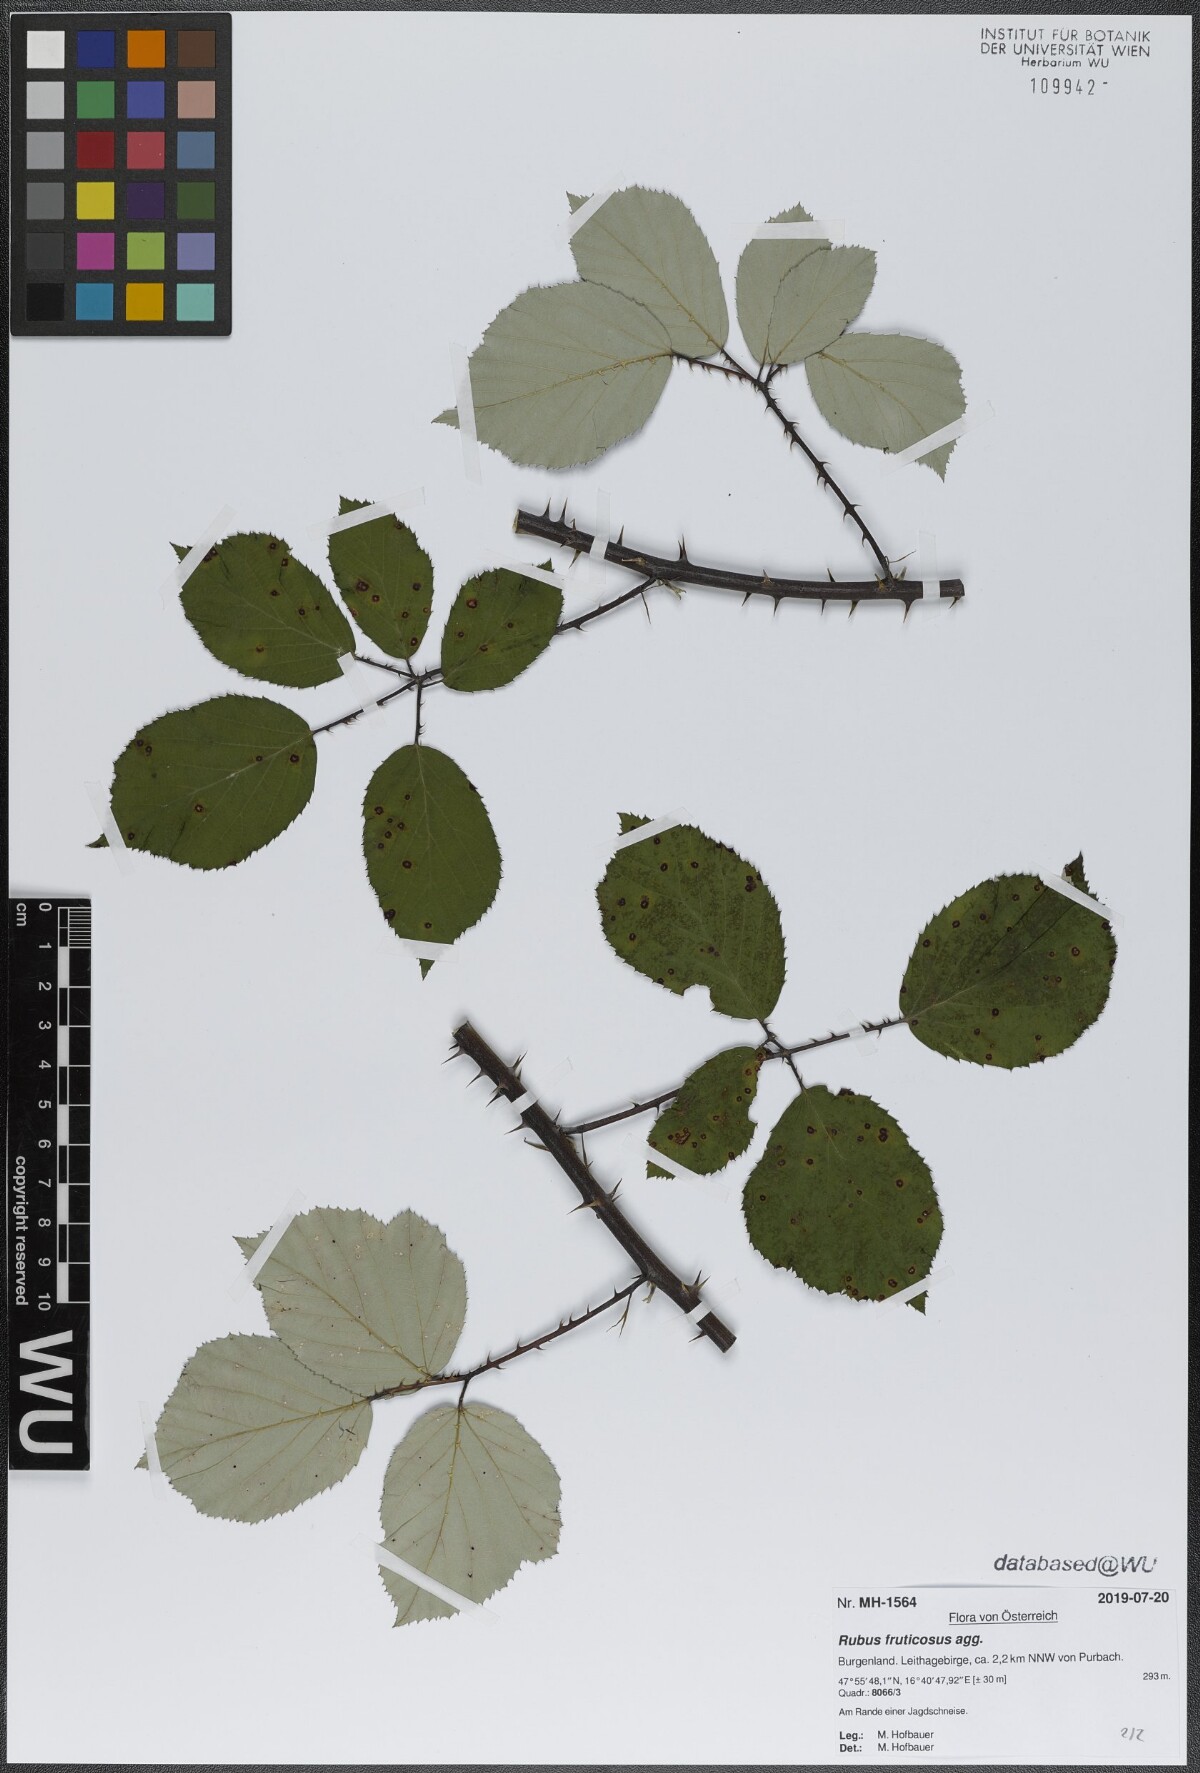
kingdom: Plantae
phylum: Tracheophyta
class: Magnoliopsida
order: Rosales
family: Rosaceae
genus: Rubus
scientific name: Rubus fruticosus
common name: Blackberry, bramble
